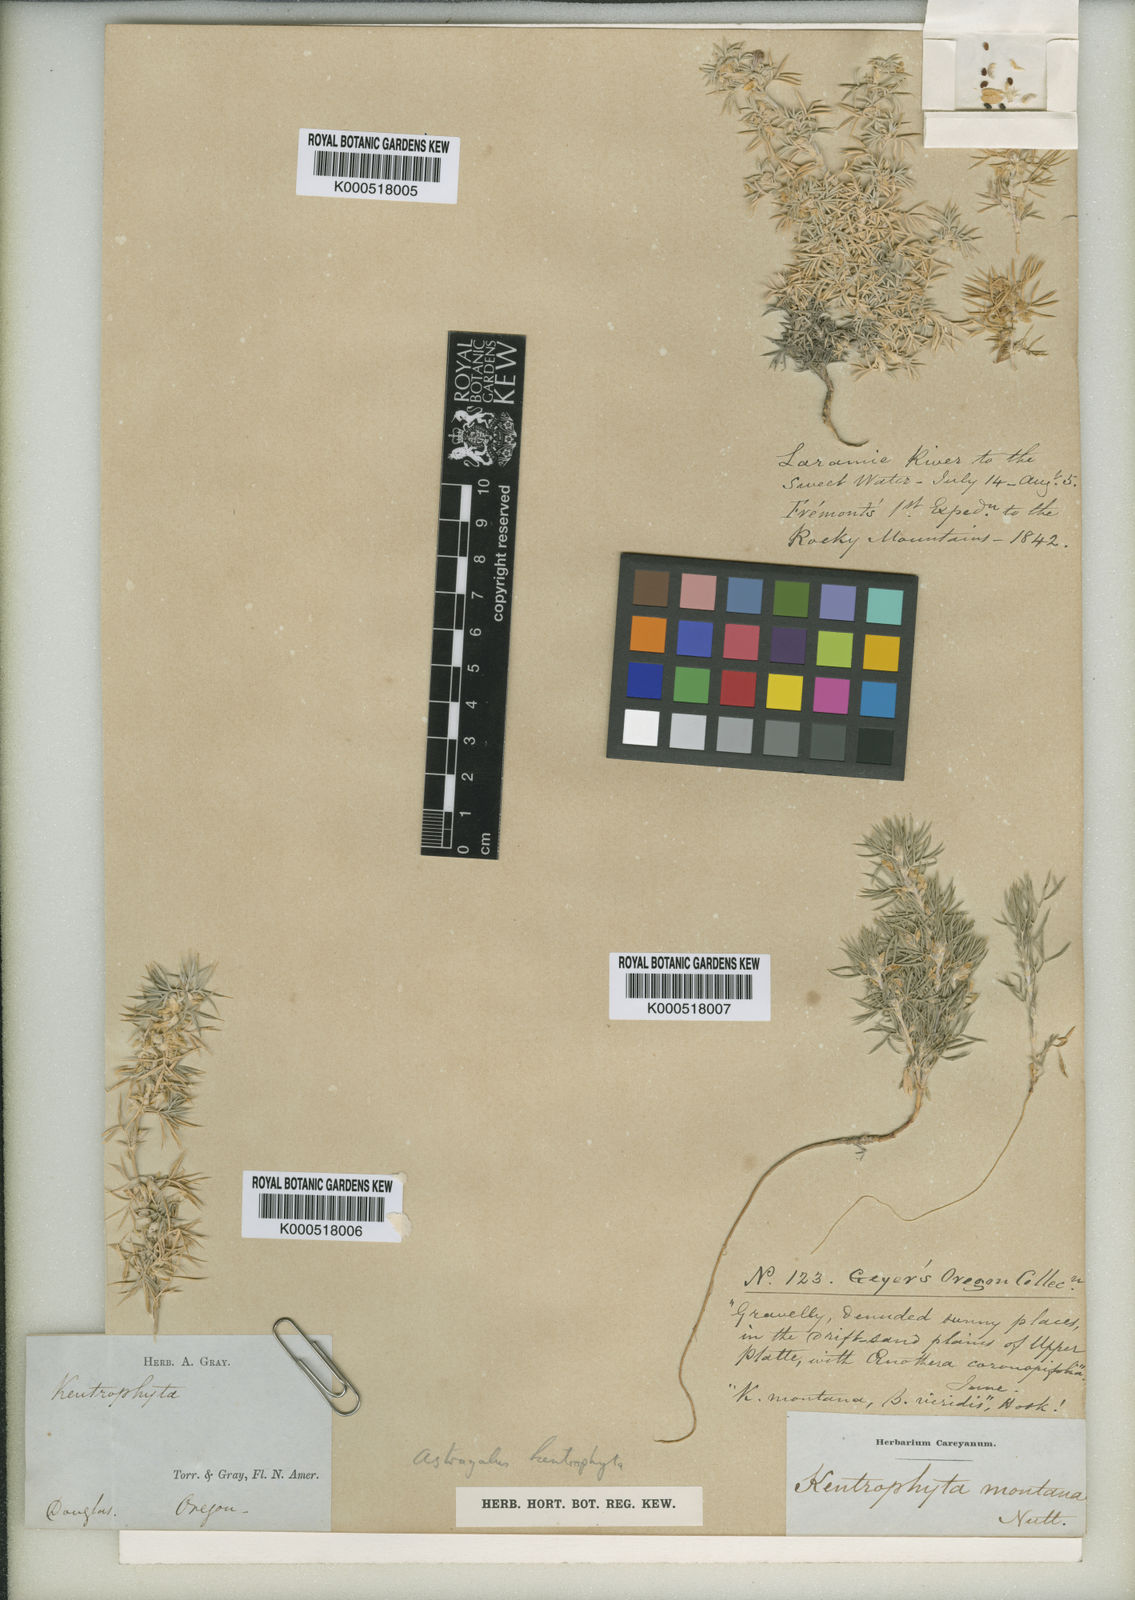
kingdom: Plantae
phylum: Tracheophyta
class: Magnoliopsida
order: Fabales
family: Fabaceae
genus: Astragalus
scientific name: Astragalus kentrophyta
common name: Prickly milk-vetch
